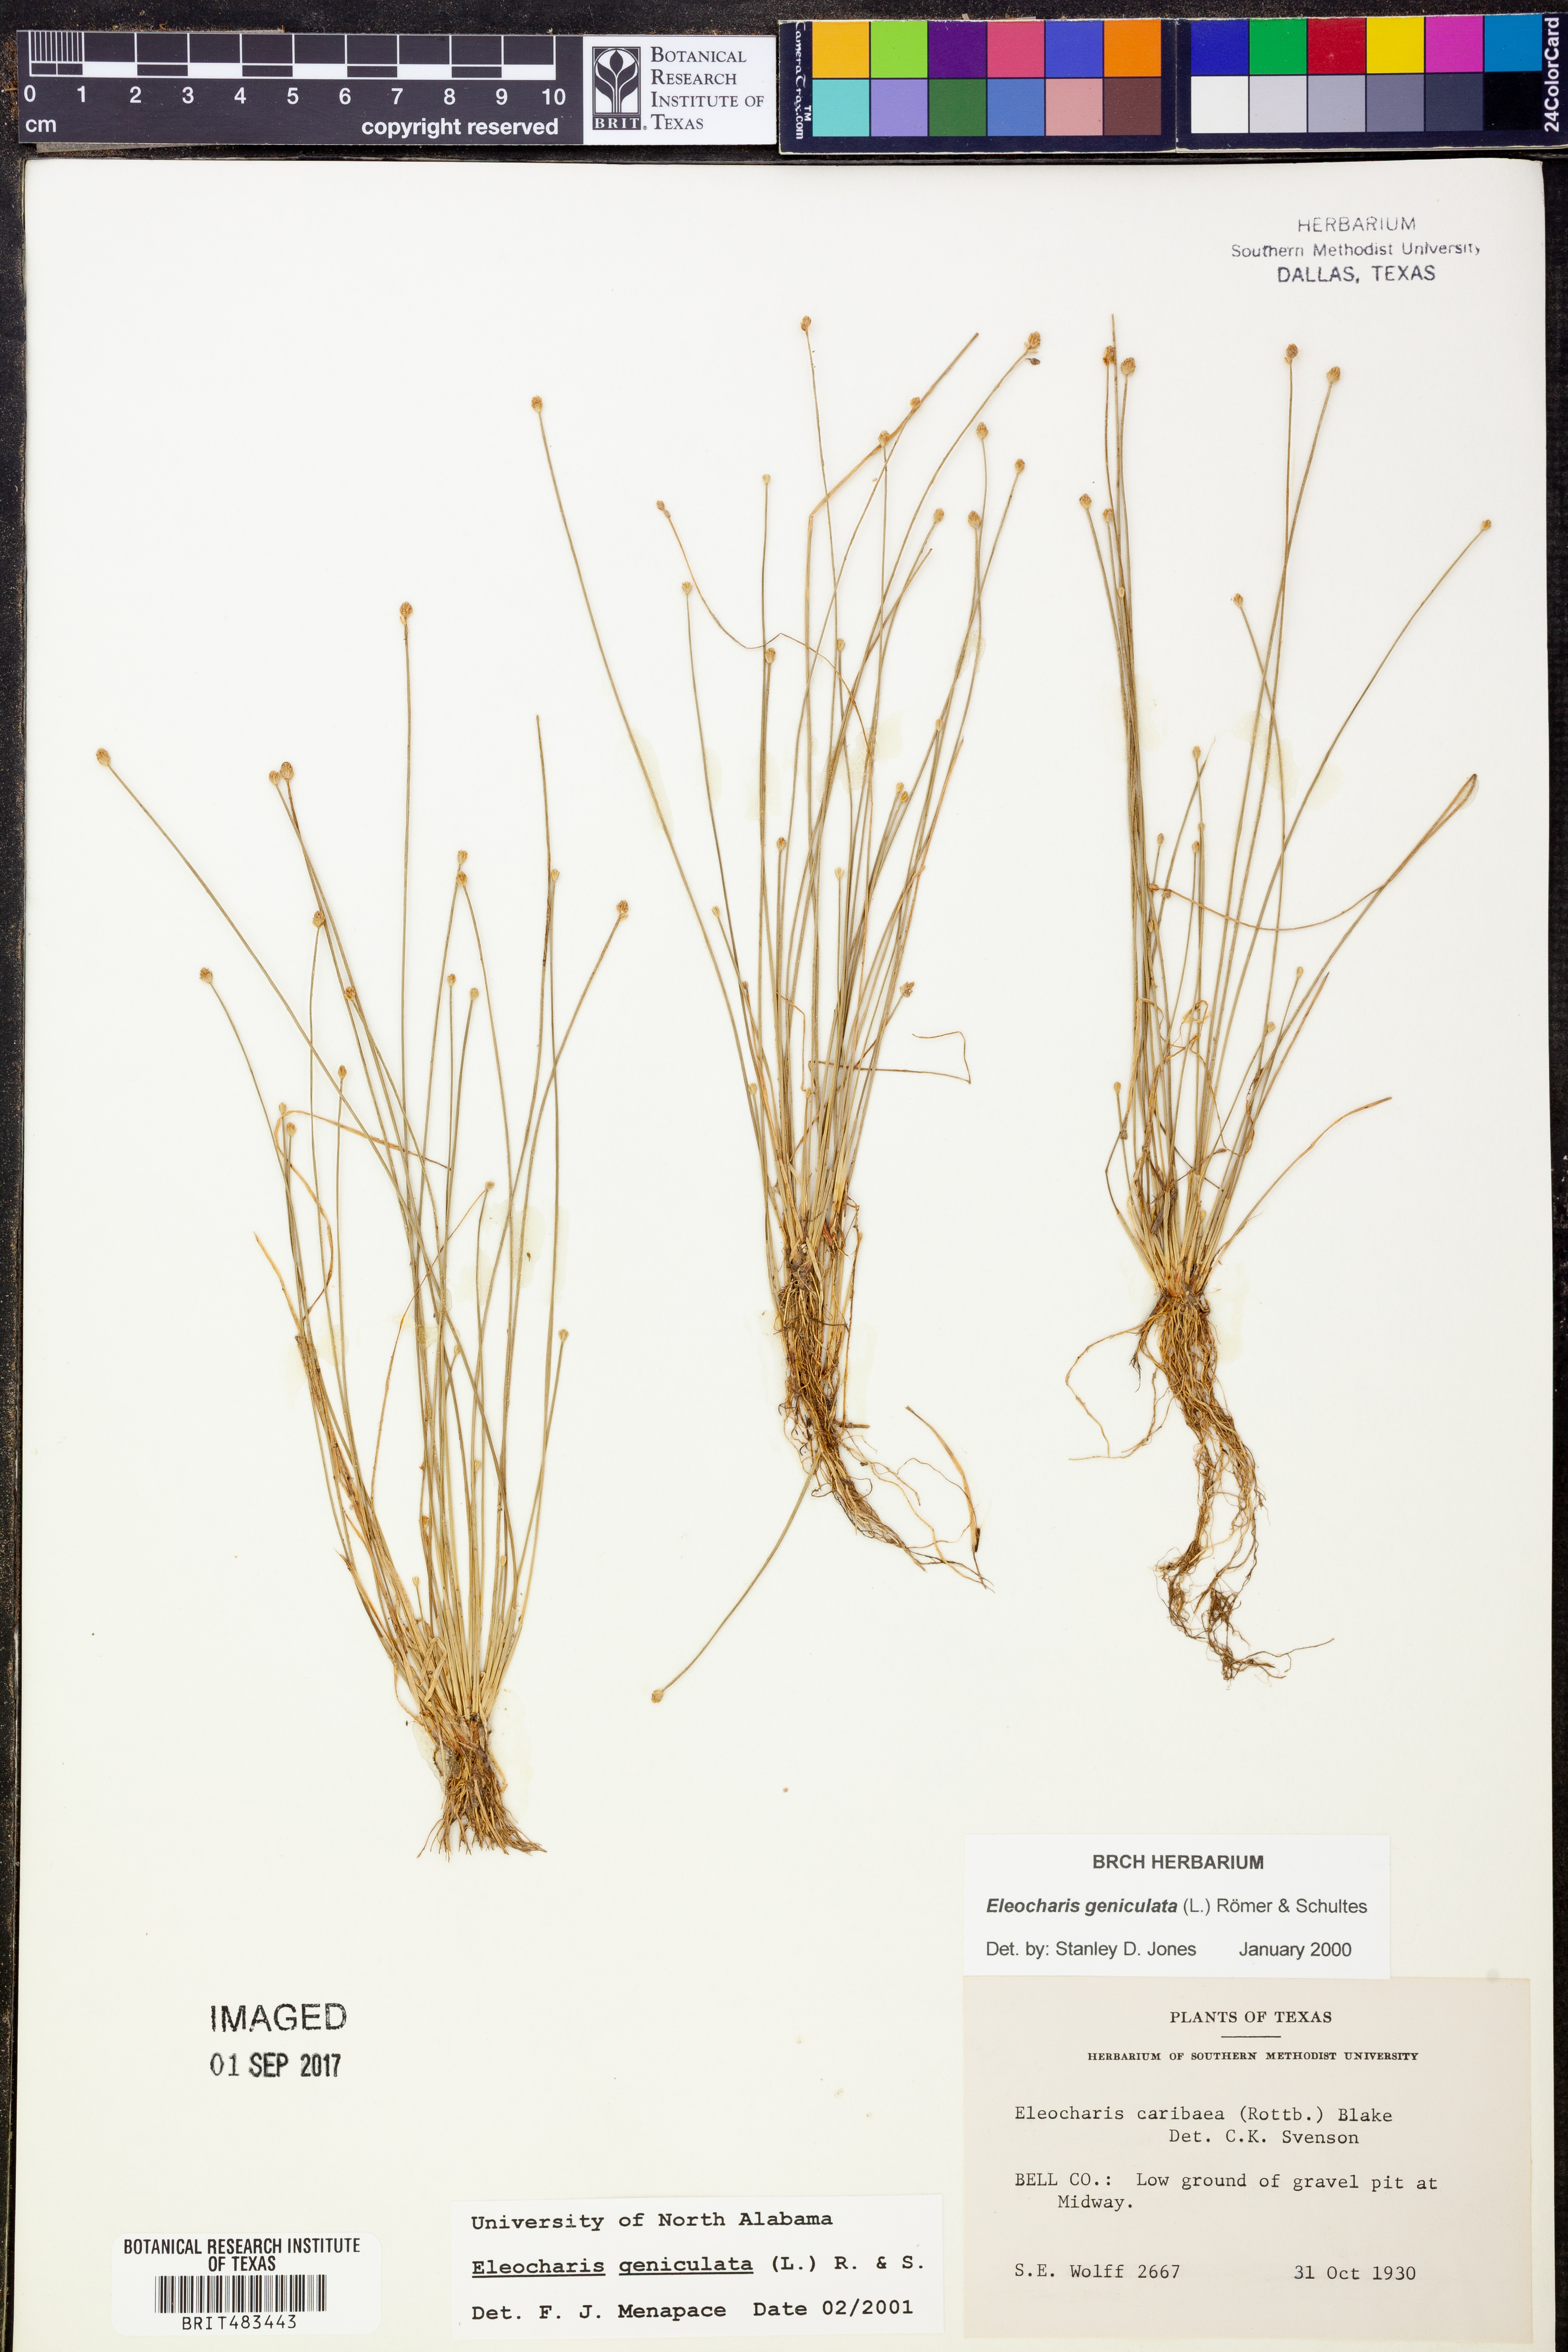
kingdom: Plantae
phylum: Tracheophyta
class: Liliopsida
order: Poales
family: Cyperaceae
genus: Eleocharis
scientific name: Eleocharis geniculata
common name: Canada spikesedge
